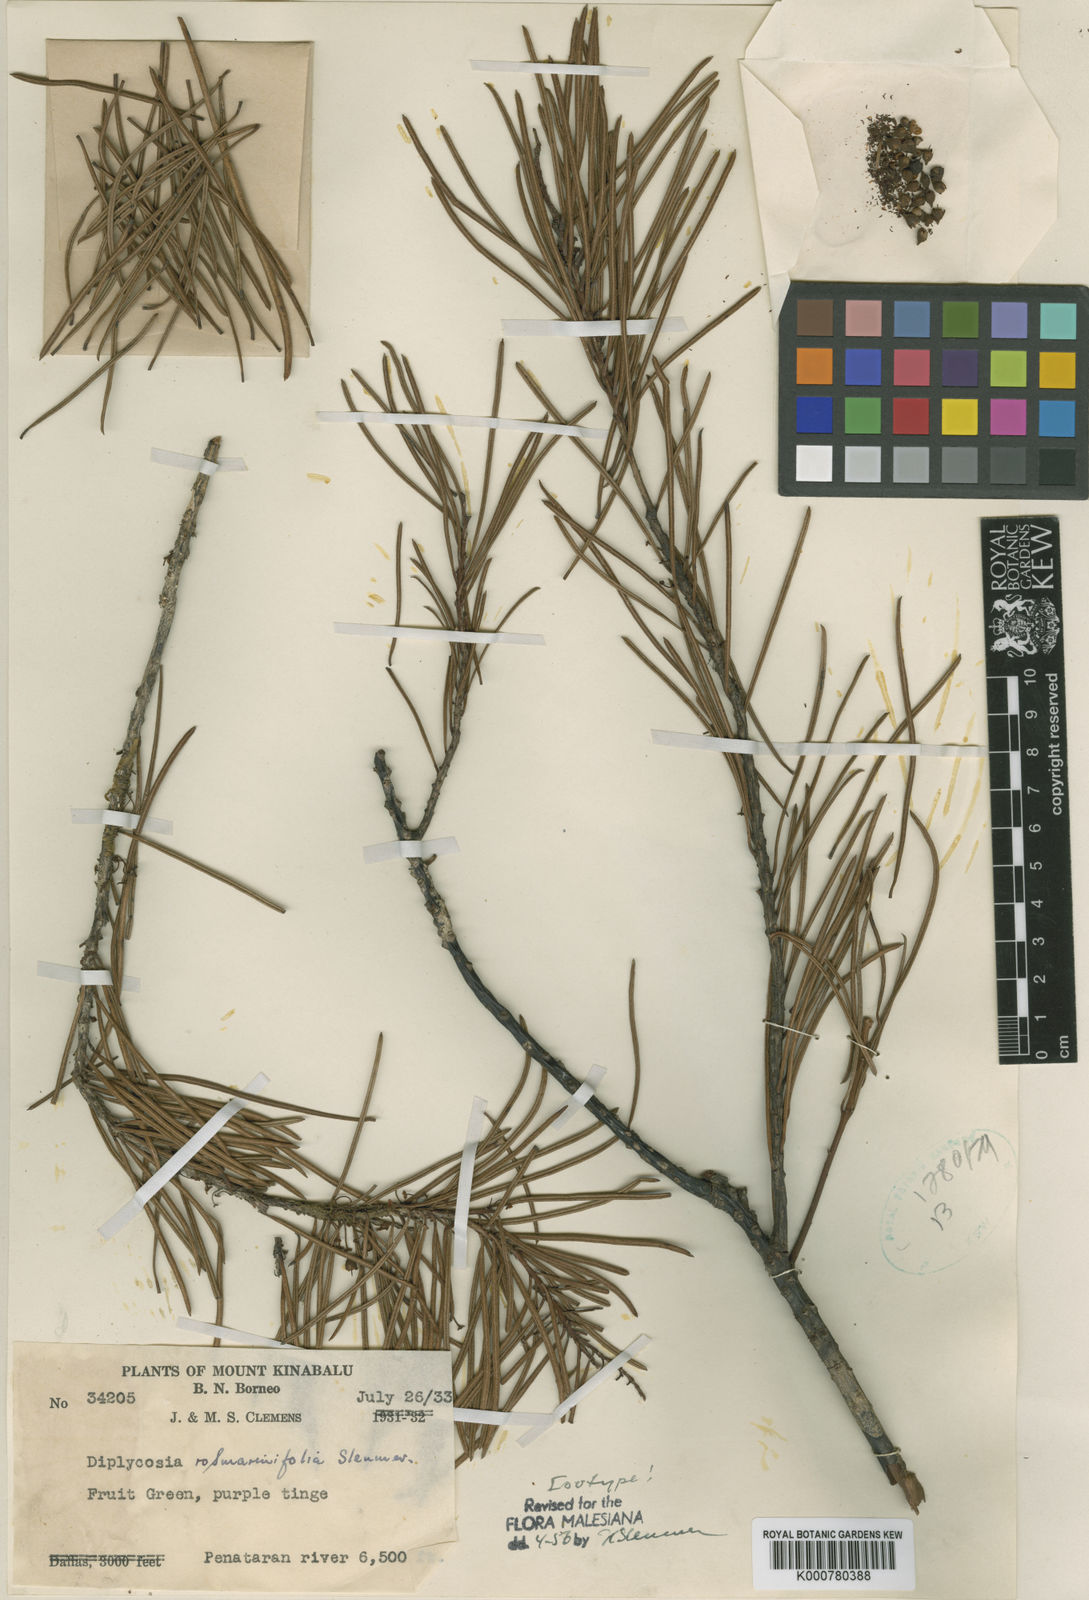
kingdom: Plantae
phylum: Tracheophyta
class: Magnoliopsida
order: Ericales
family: Ericaceae
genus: Gaultheria
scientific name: Gaultheria rosmarinifolia
